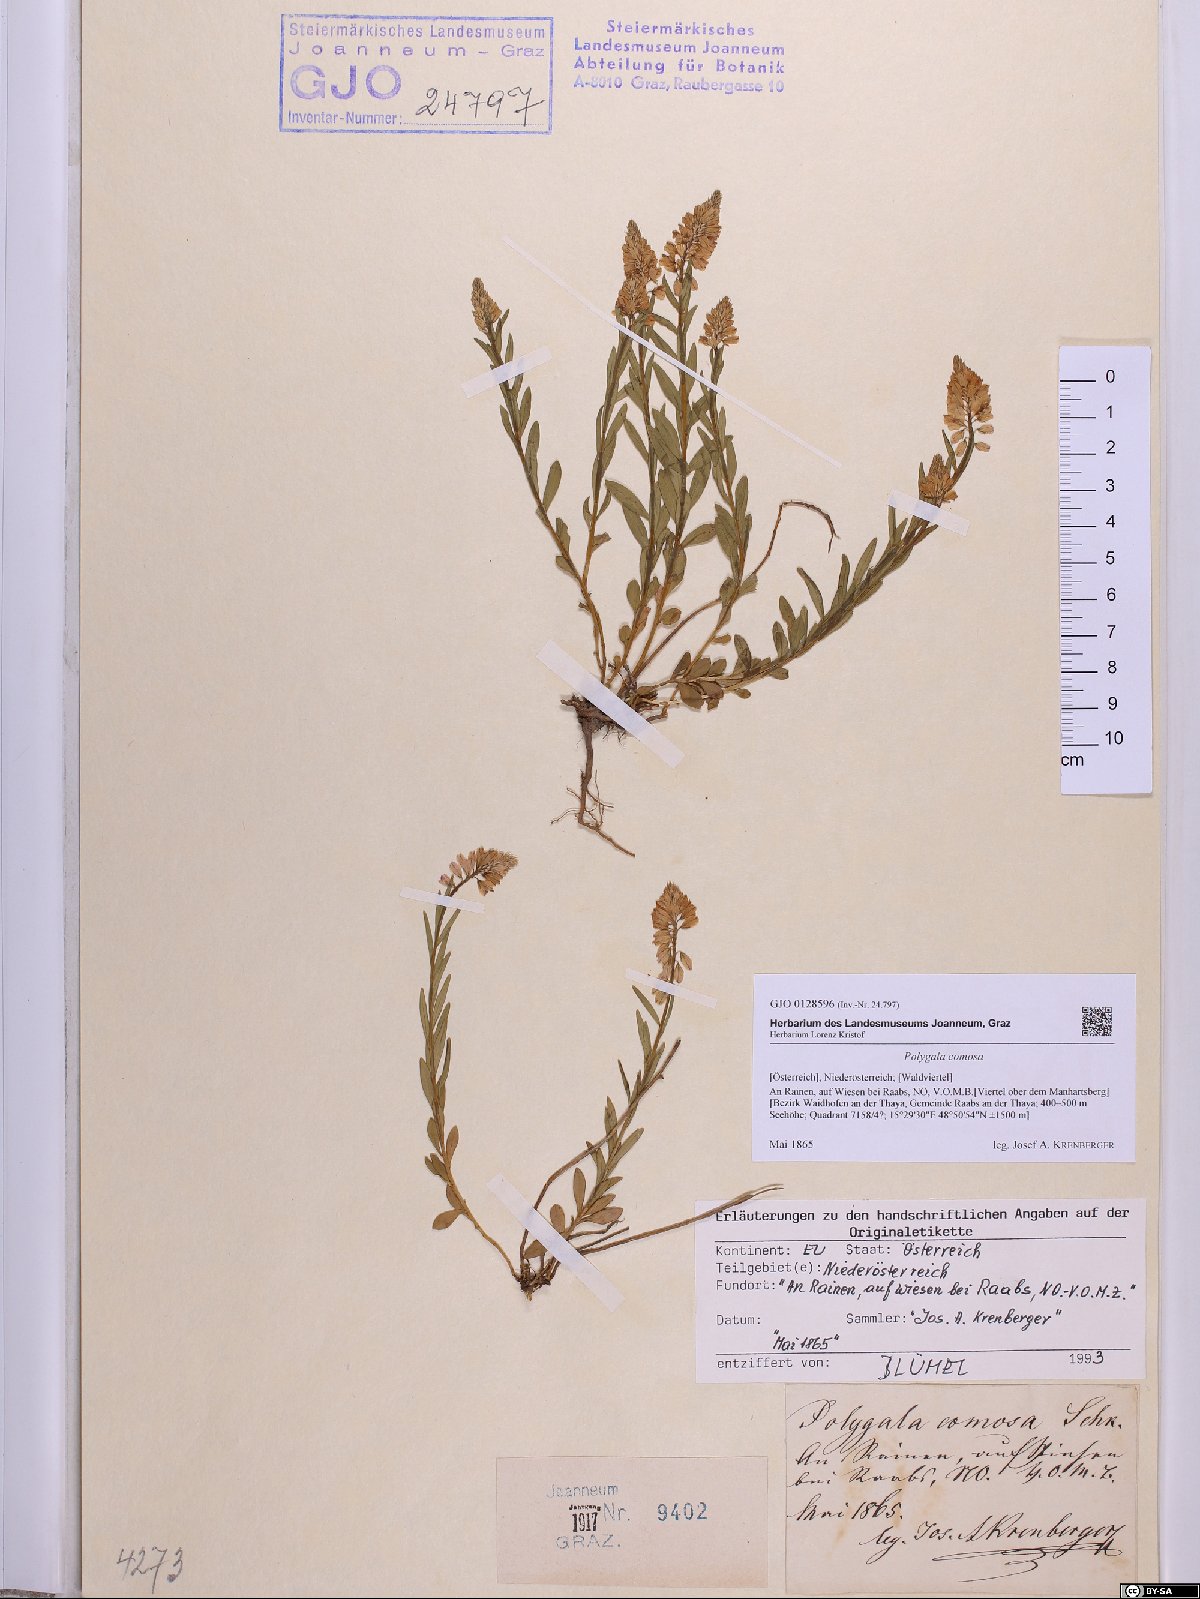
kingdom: Plantae
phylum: Tracheophyta
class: Magnoliopsida
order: Fabales
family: Polygalaceae
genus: Polygala
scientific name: Polygala comosa
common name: Tufted milkwort
